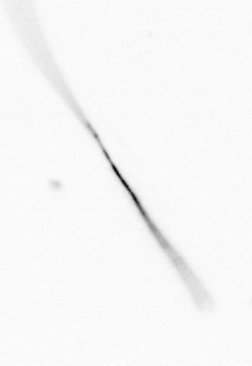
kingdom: Chromista
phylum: Ochrophyta
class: Bacillariophyceae
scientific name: Bacillariophyceae
